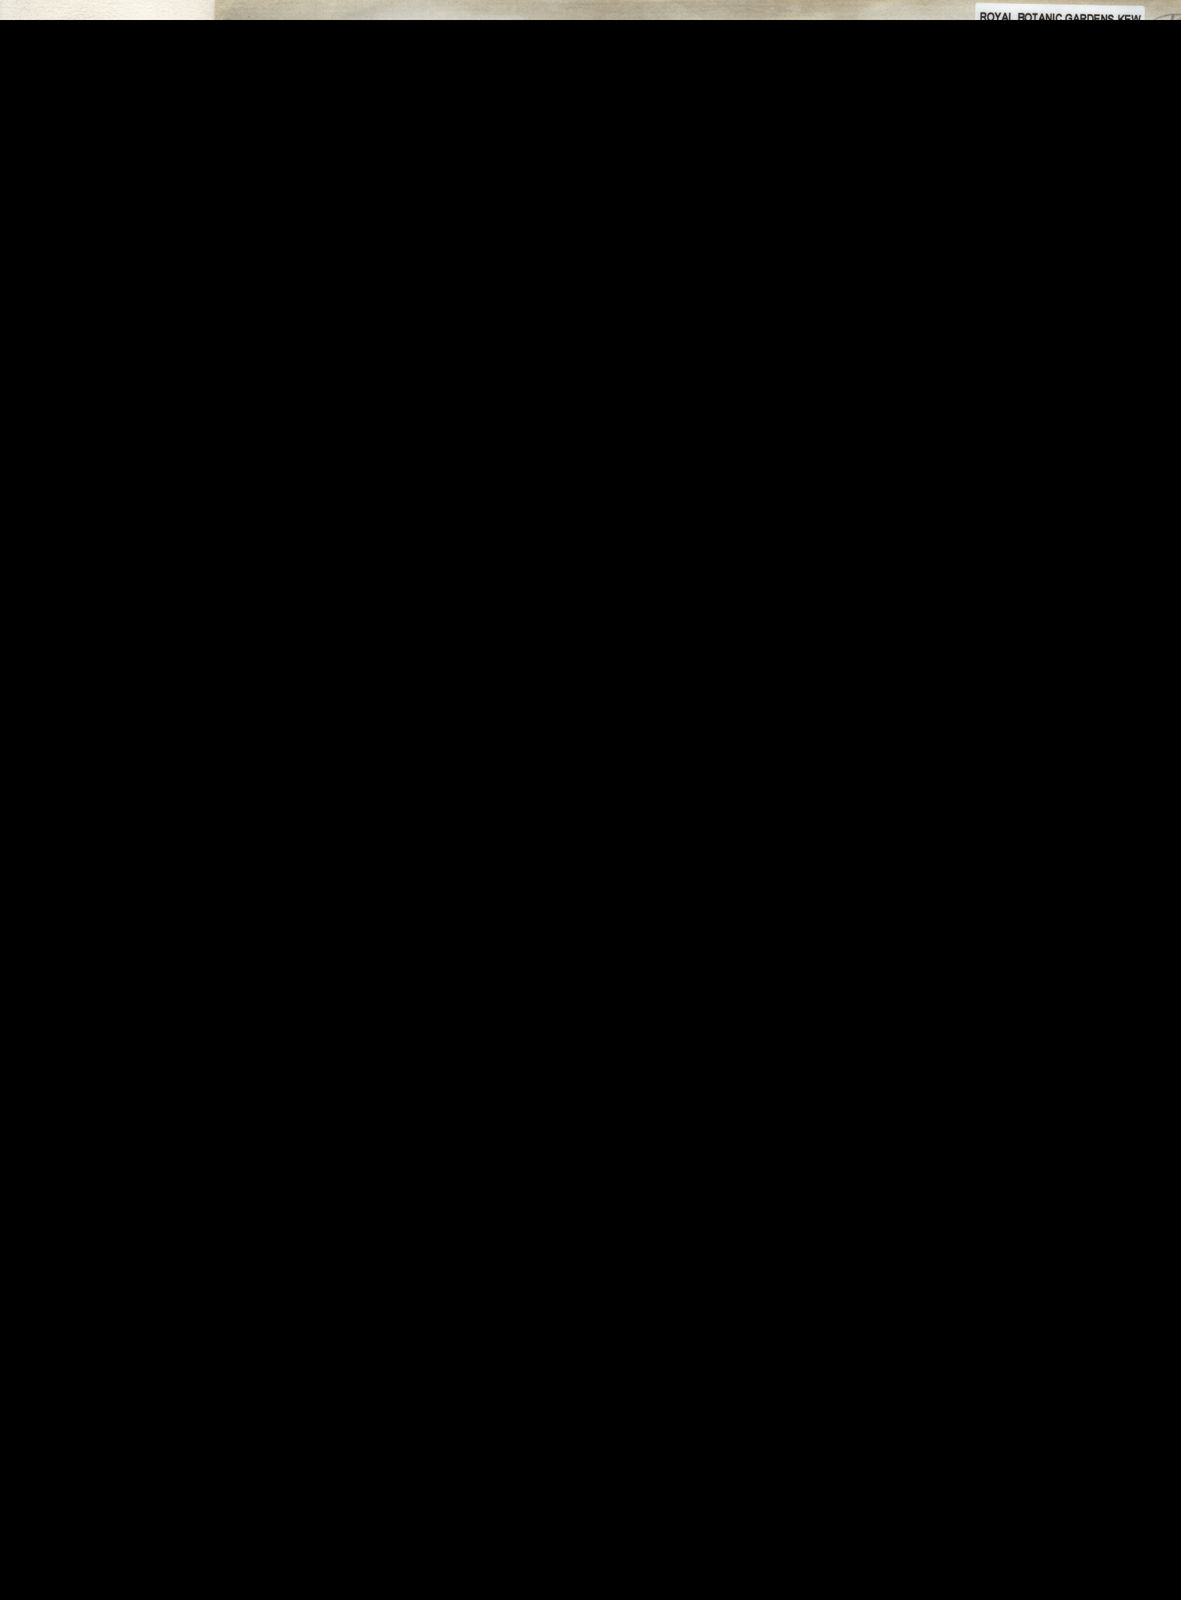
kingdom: Plantae
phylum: Tracheophyta
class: Magnoliopsida
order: Fabales
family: Fabaceae
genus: Erythrina
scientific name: Erythrina vespertilio
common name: Bat-wing coral tree
